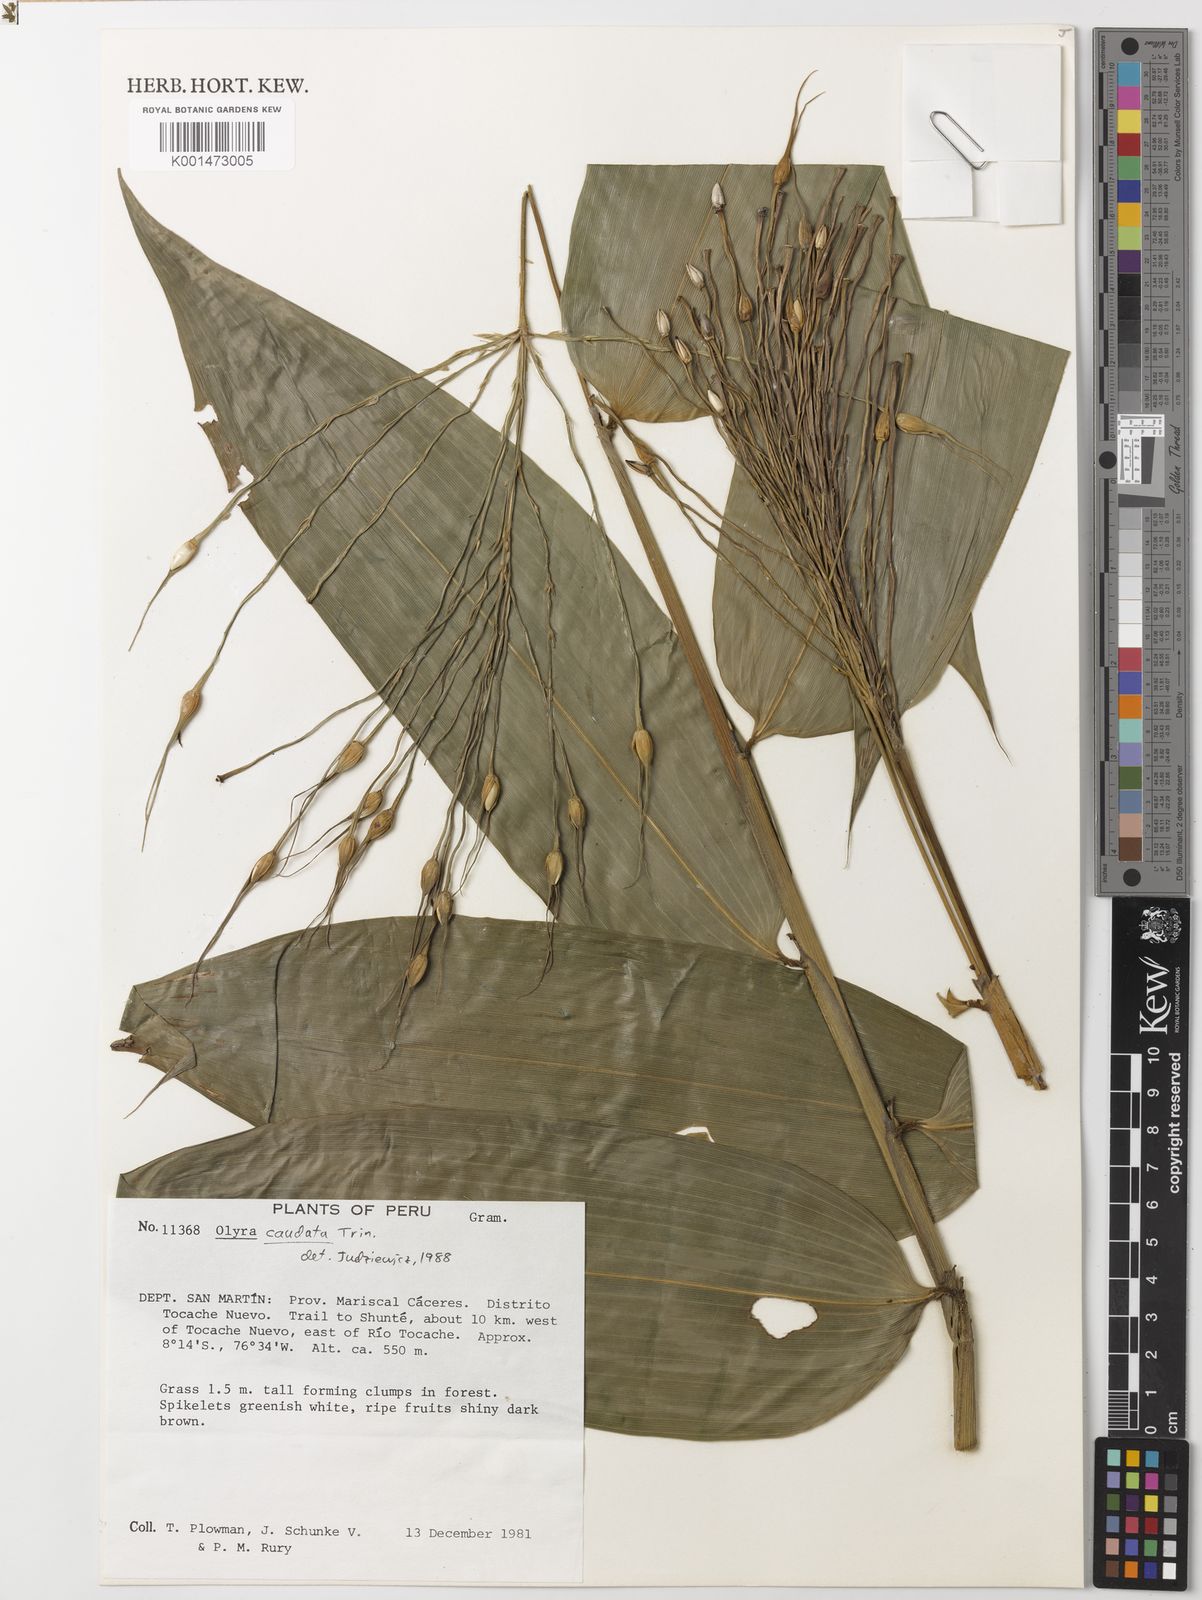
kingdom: Plantae
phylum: Tracheophyta
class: Liliopsida
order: Poales
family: Poaceae
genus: Olyra
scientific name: Olyra caudata
